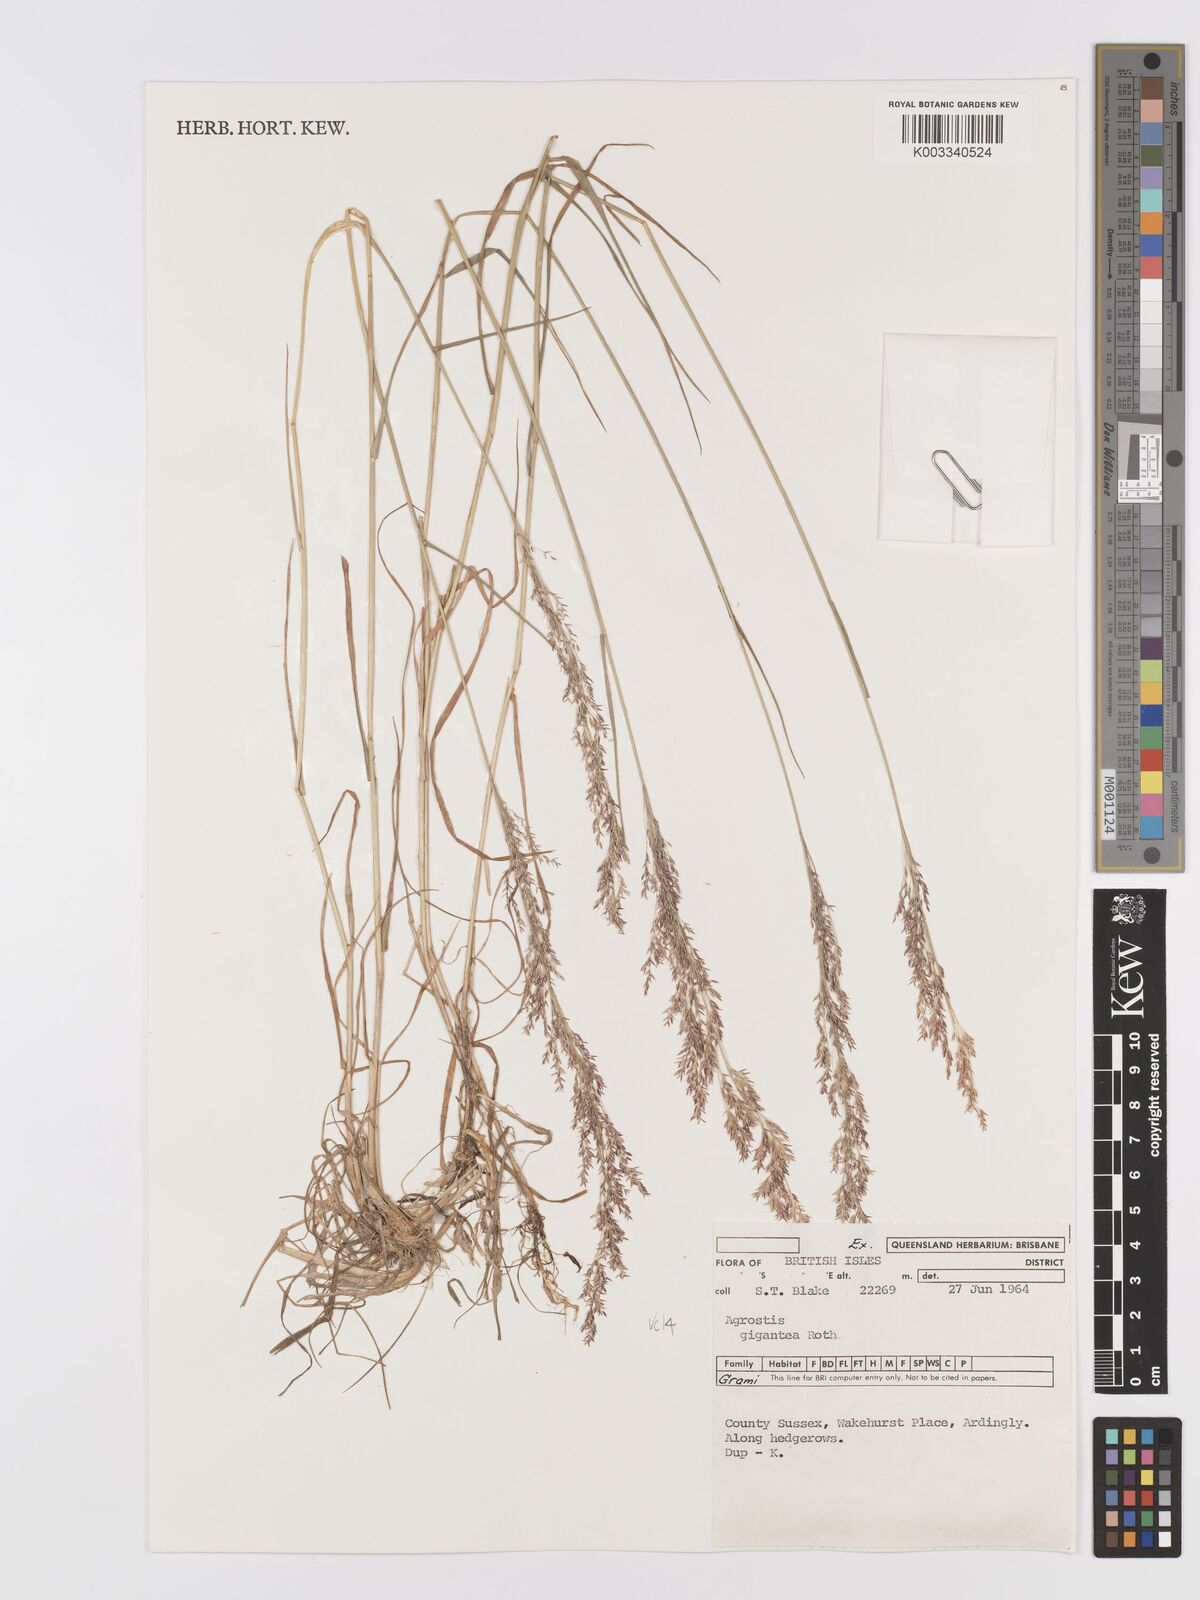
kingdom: Plantae
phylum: Tracheophyta
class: Liliopsida
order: Poales
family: Poaceae
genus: Agrostis
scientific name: Agrostis capillaris
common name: Colonial bentgrass
